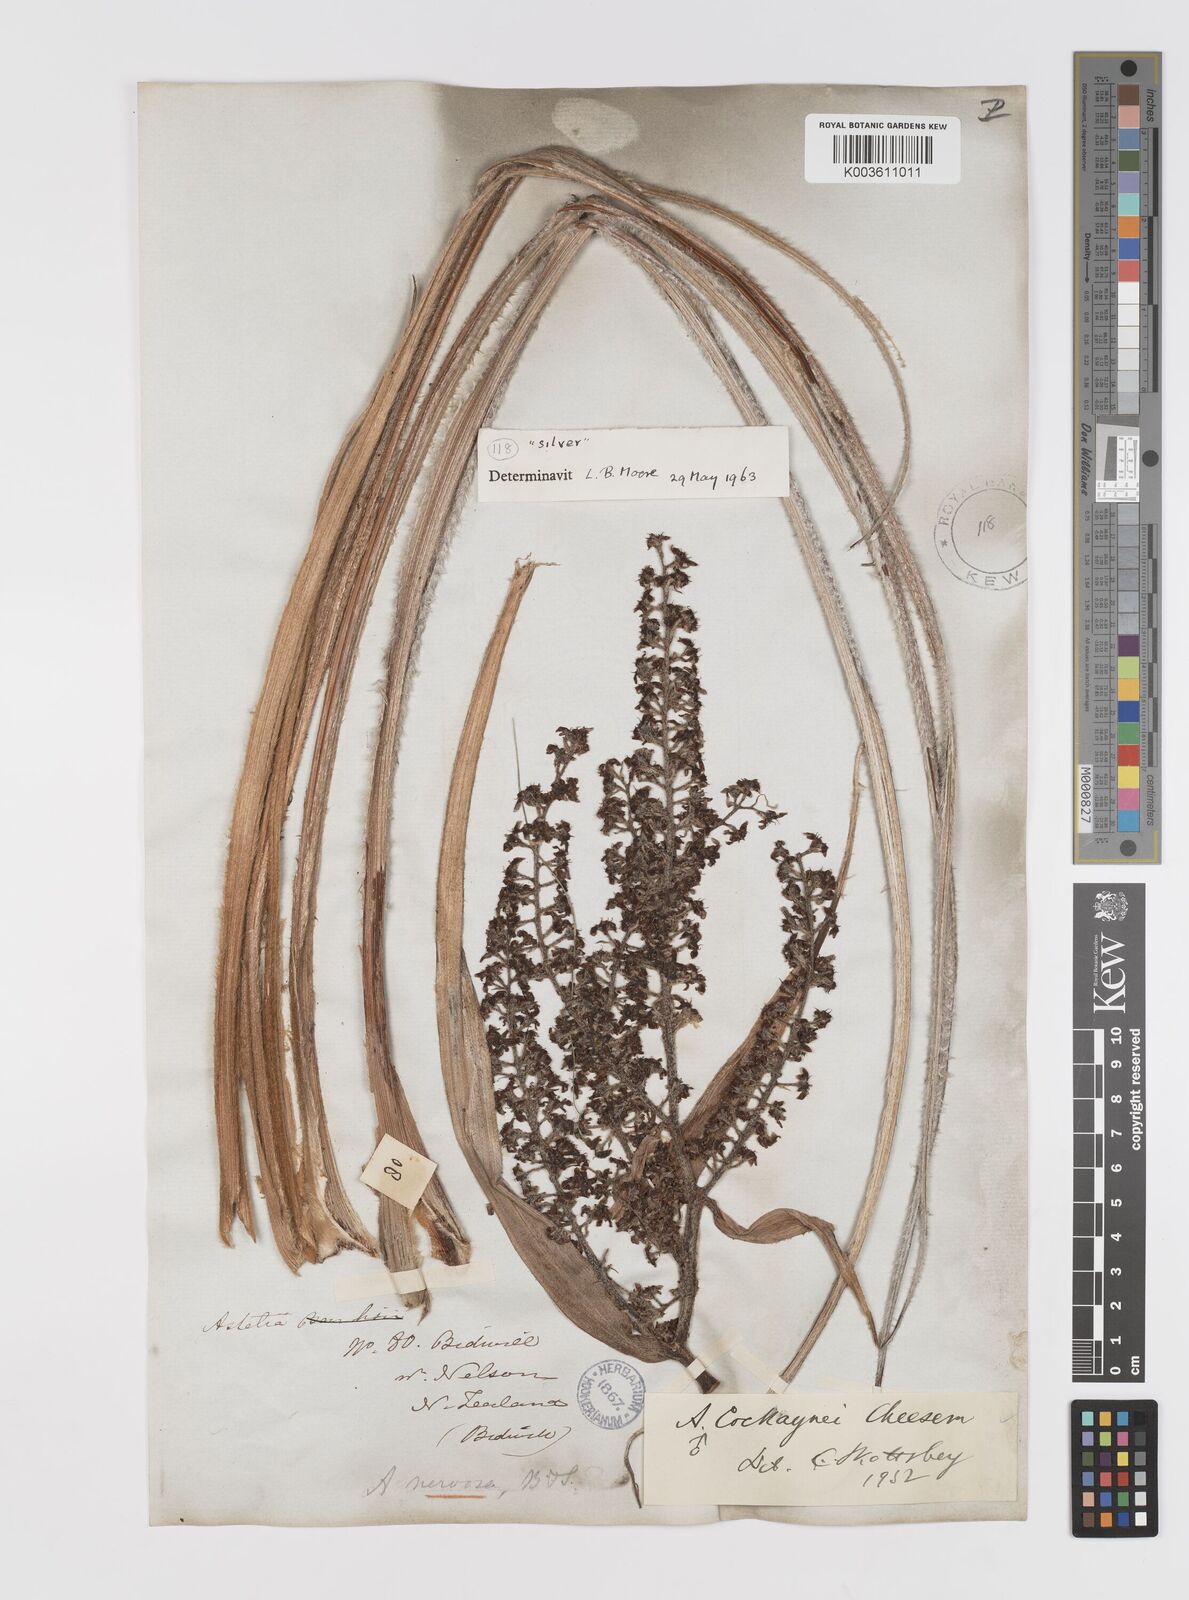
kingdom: Plantae
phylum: Tracheophyta
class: Liliopsida
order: Asparagales
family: Asteliaceae
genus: Astelia
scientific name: Astelia nervosa
